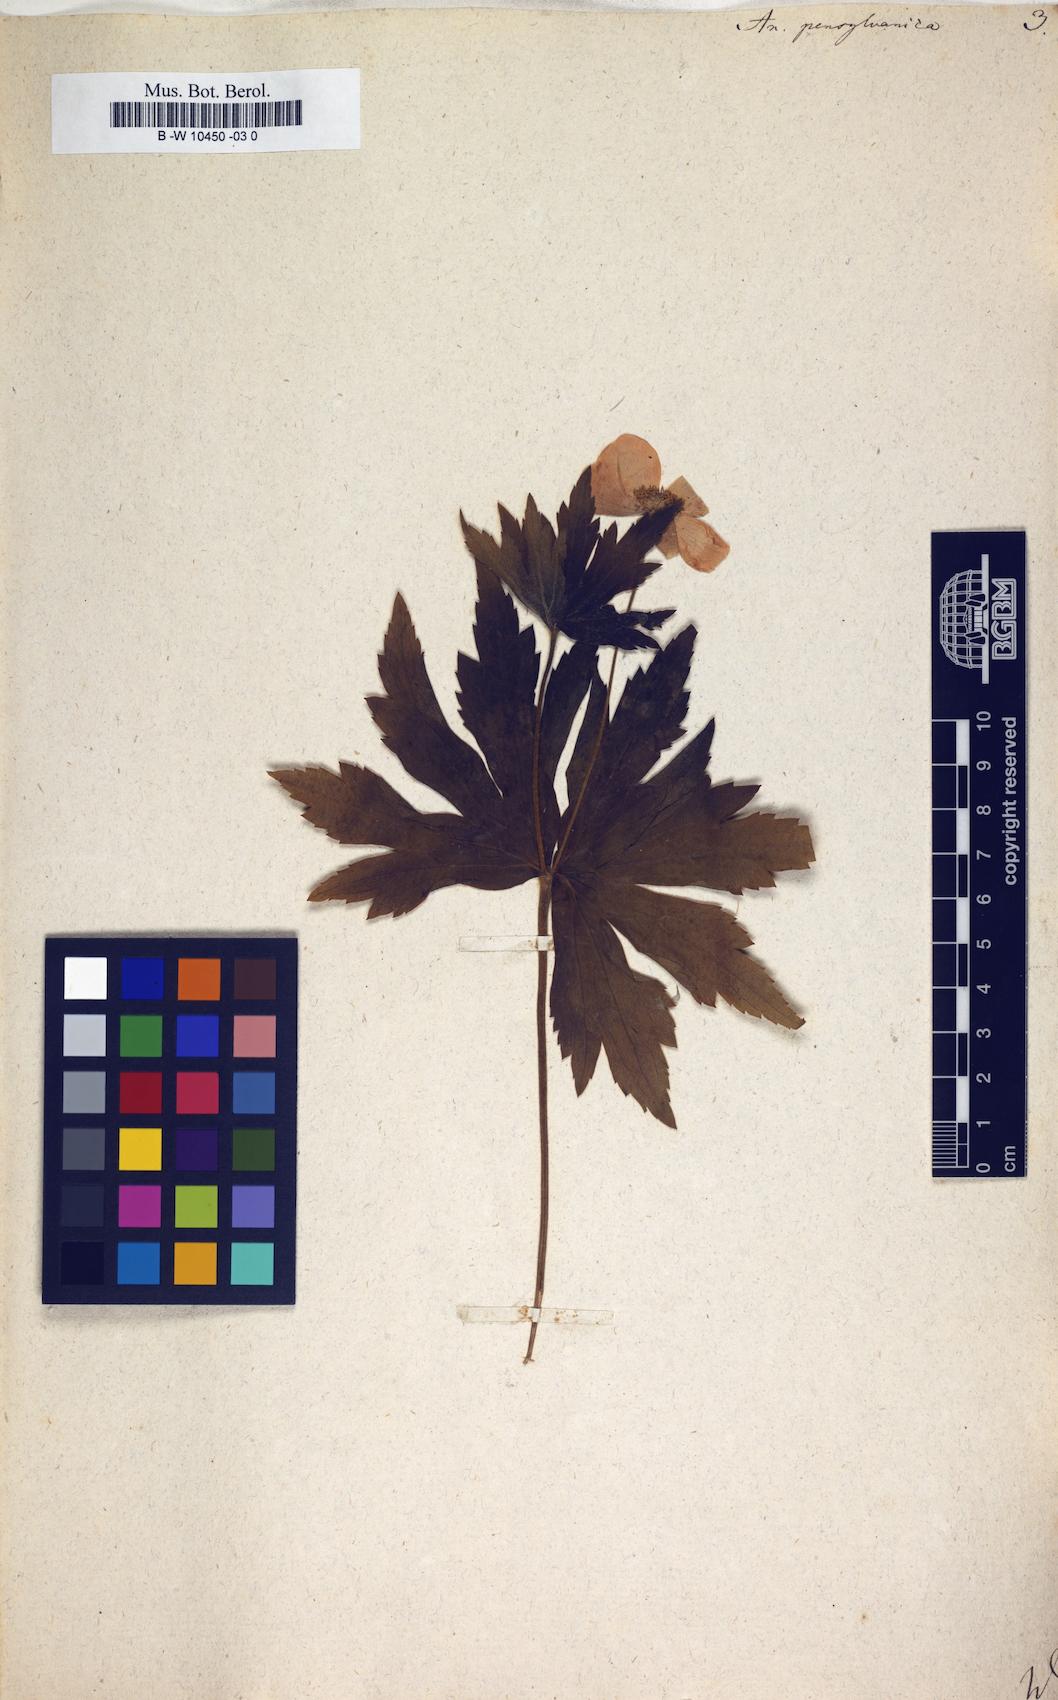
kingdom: Plantae
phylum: Tracheophyta
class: Magnoliopsida
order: Ranunculales
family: Ranunculaceae
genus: Anemonastrum
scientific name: Anemonastrum dichotomum
